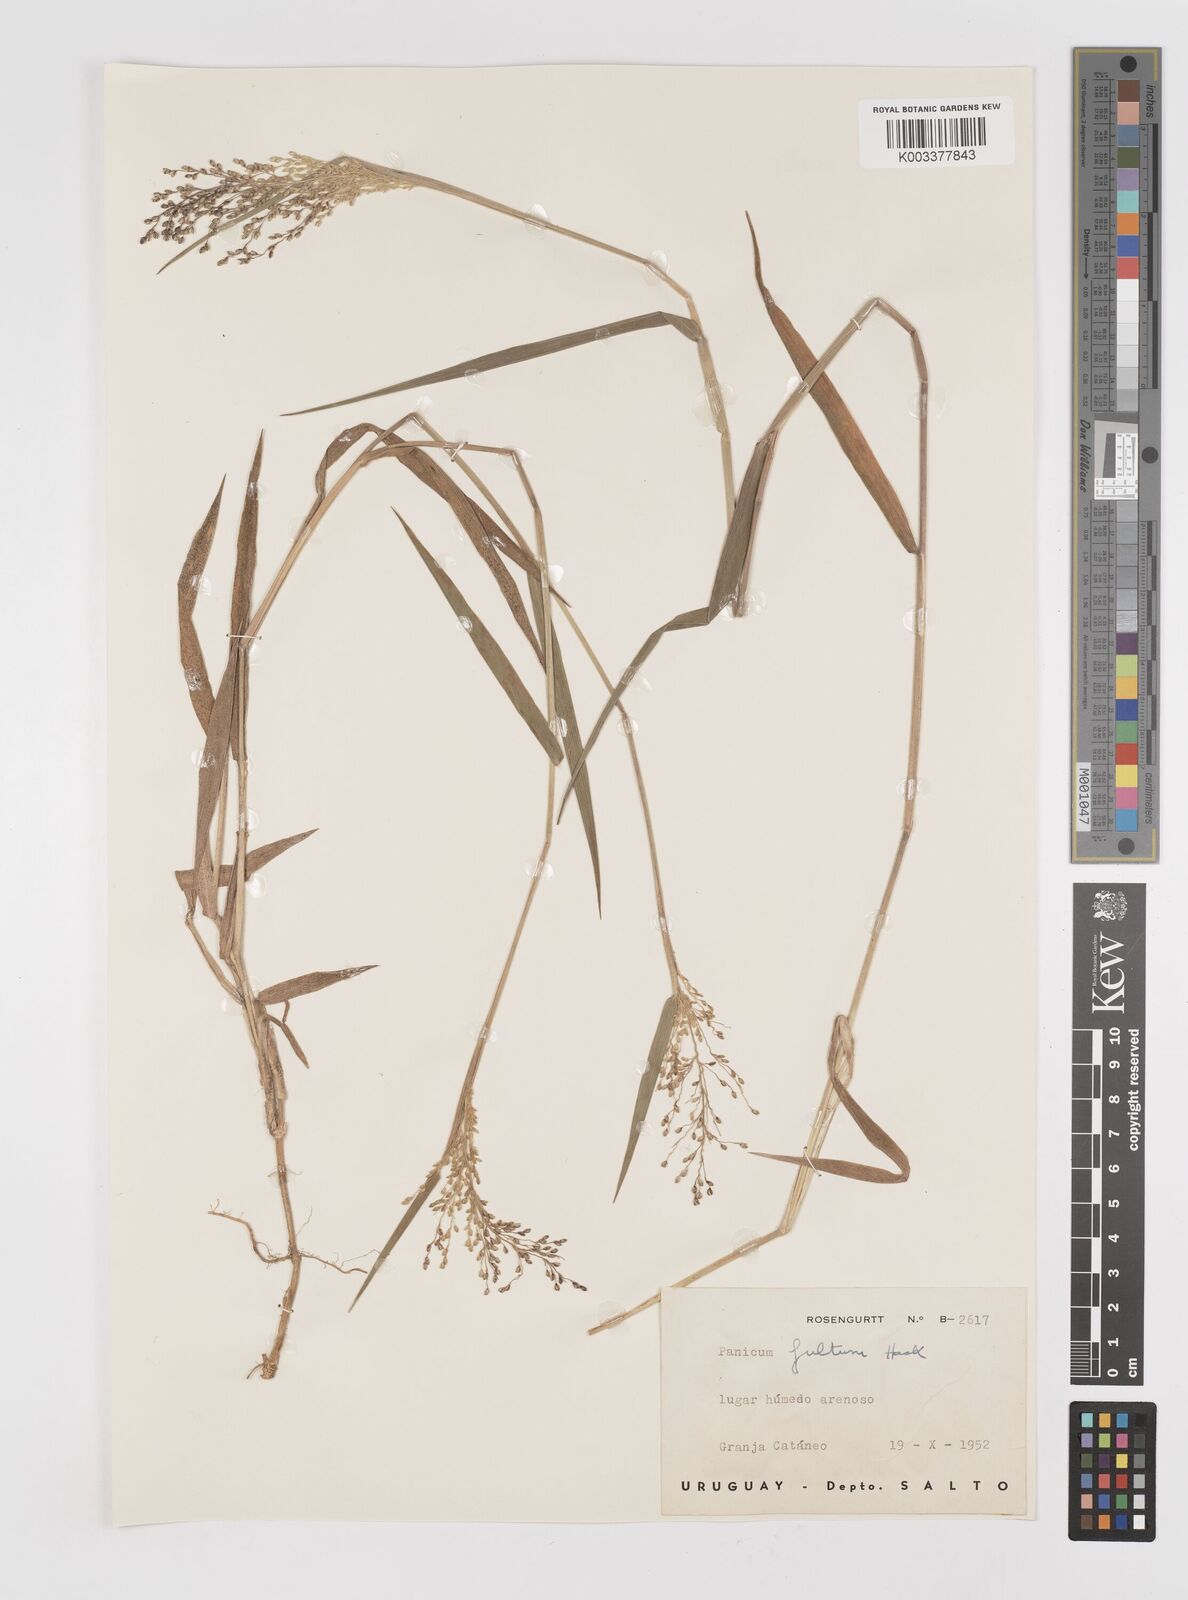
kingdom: Plantae
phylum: Tracheophyta
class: Liliopsida
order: Poales
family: Poaceae
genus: Dichanthelium
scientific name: Dichanthelium sabulorum
